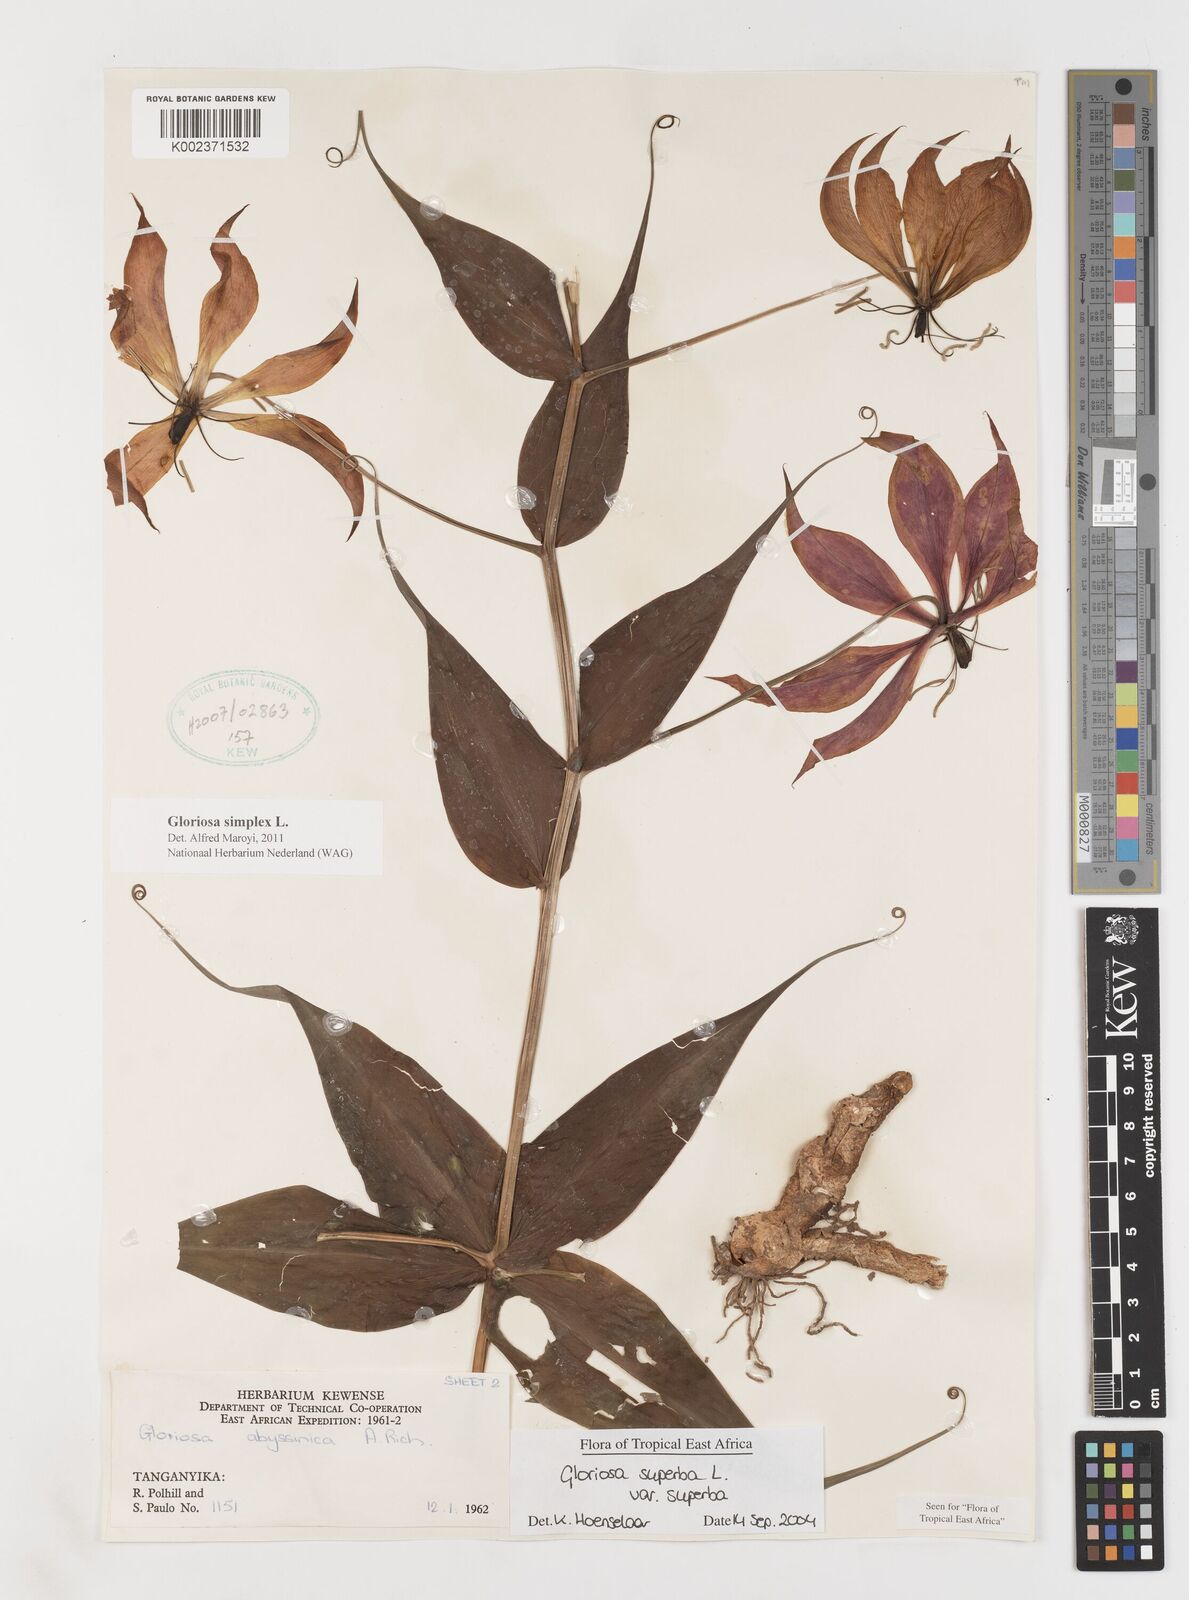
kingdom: Plantae
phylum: Tracheophyta
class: Liliopsida
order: Liliales
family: Colchicaceae
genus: Gloriosa
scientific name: Gloriosa simplex
